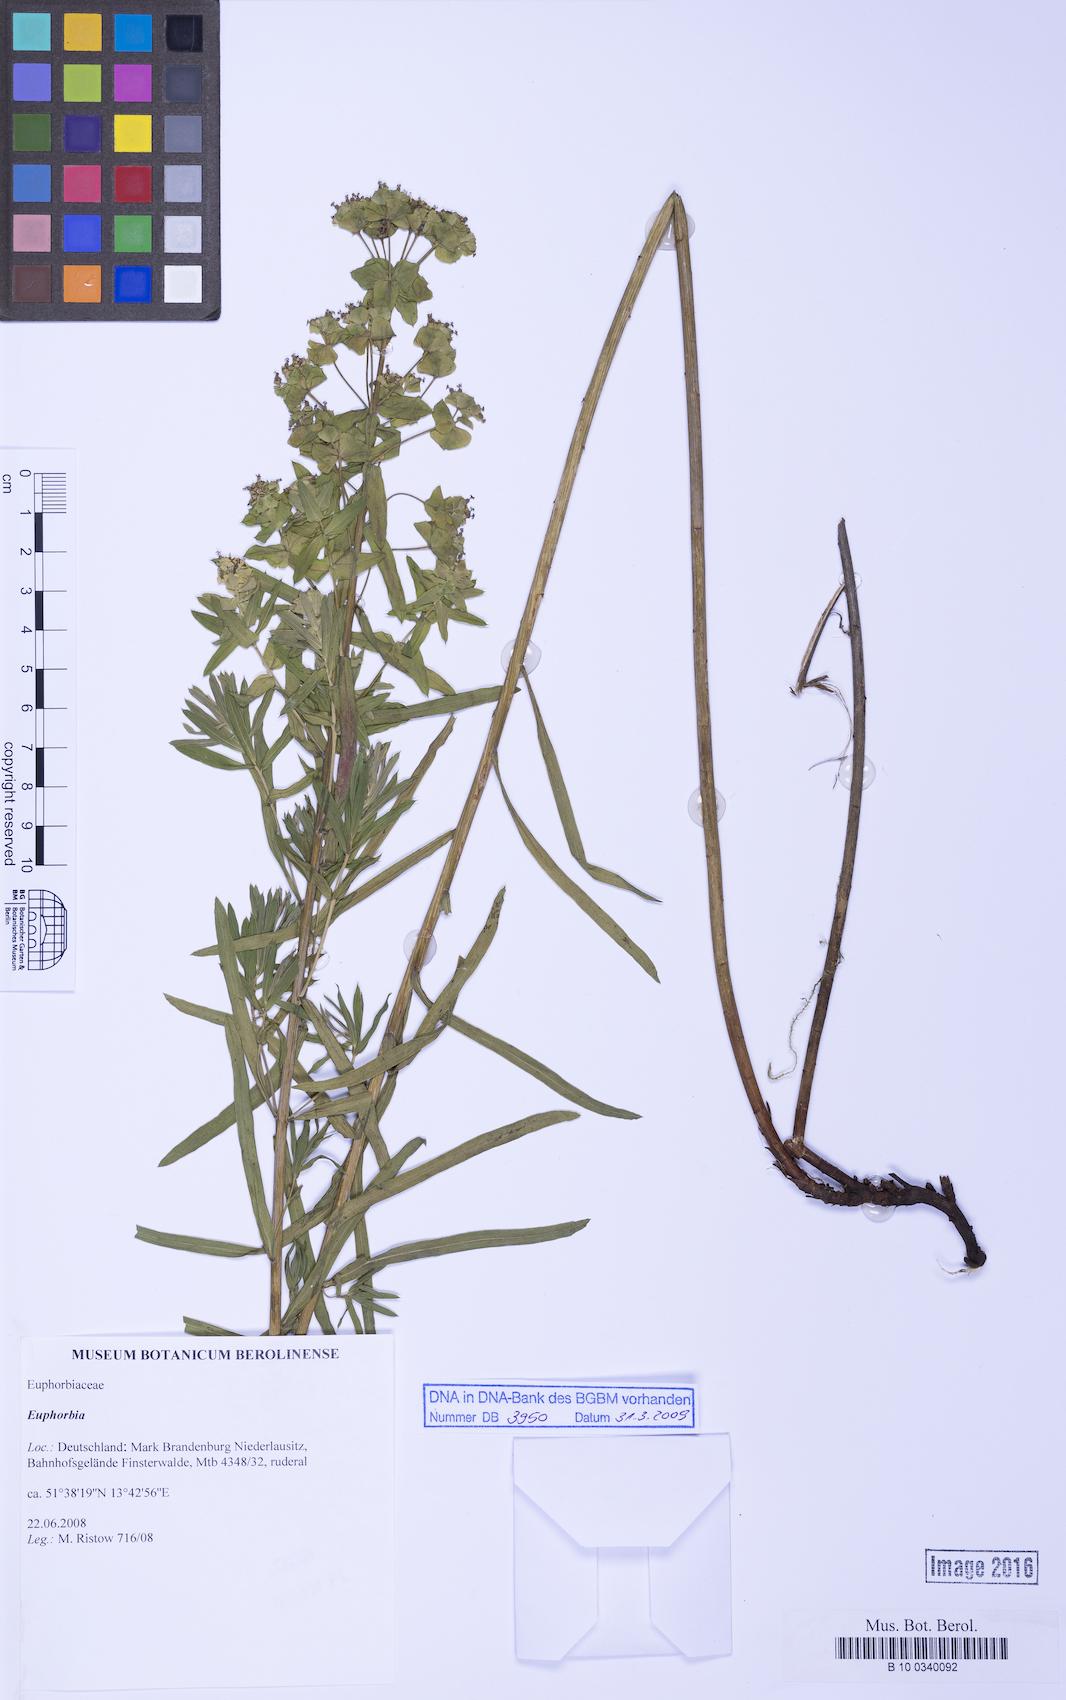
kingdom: Plantae
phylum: Tracheophyta
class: Magnoliopsida
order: Malpighiales
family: Euphorbiaceae
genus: Euphorbia
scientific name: Euphorbia lamarckii
